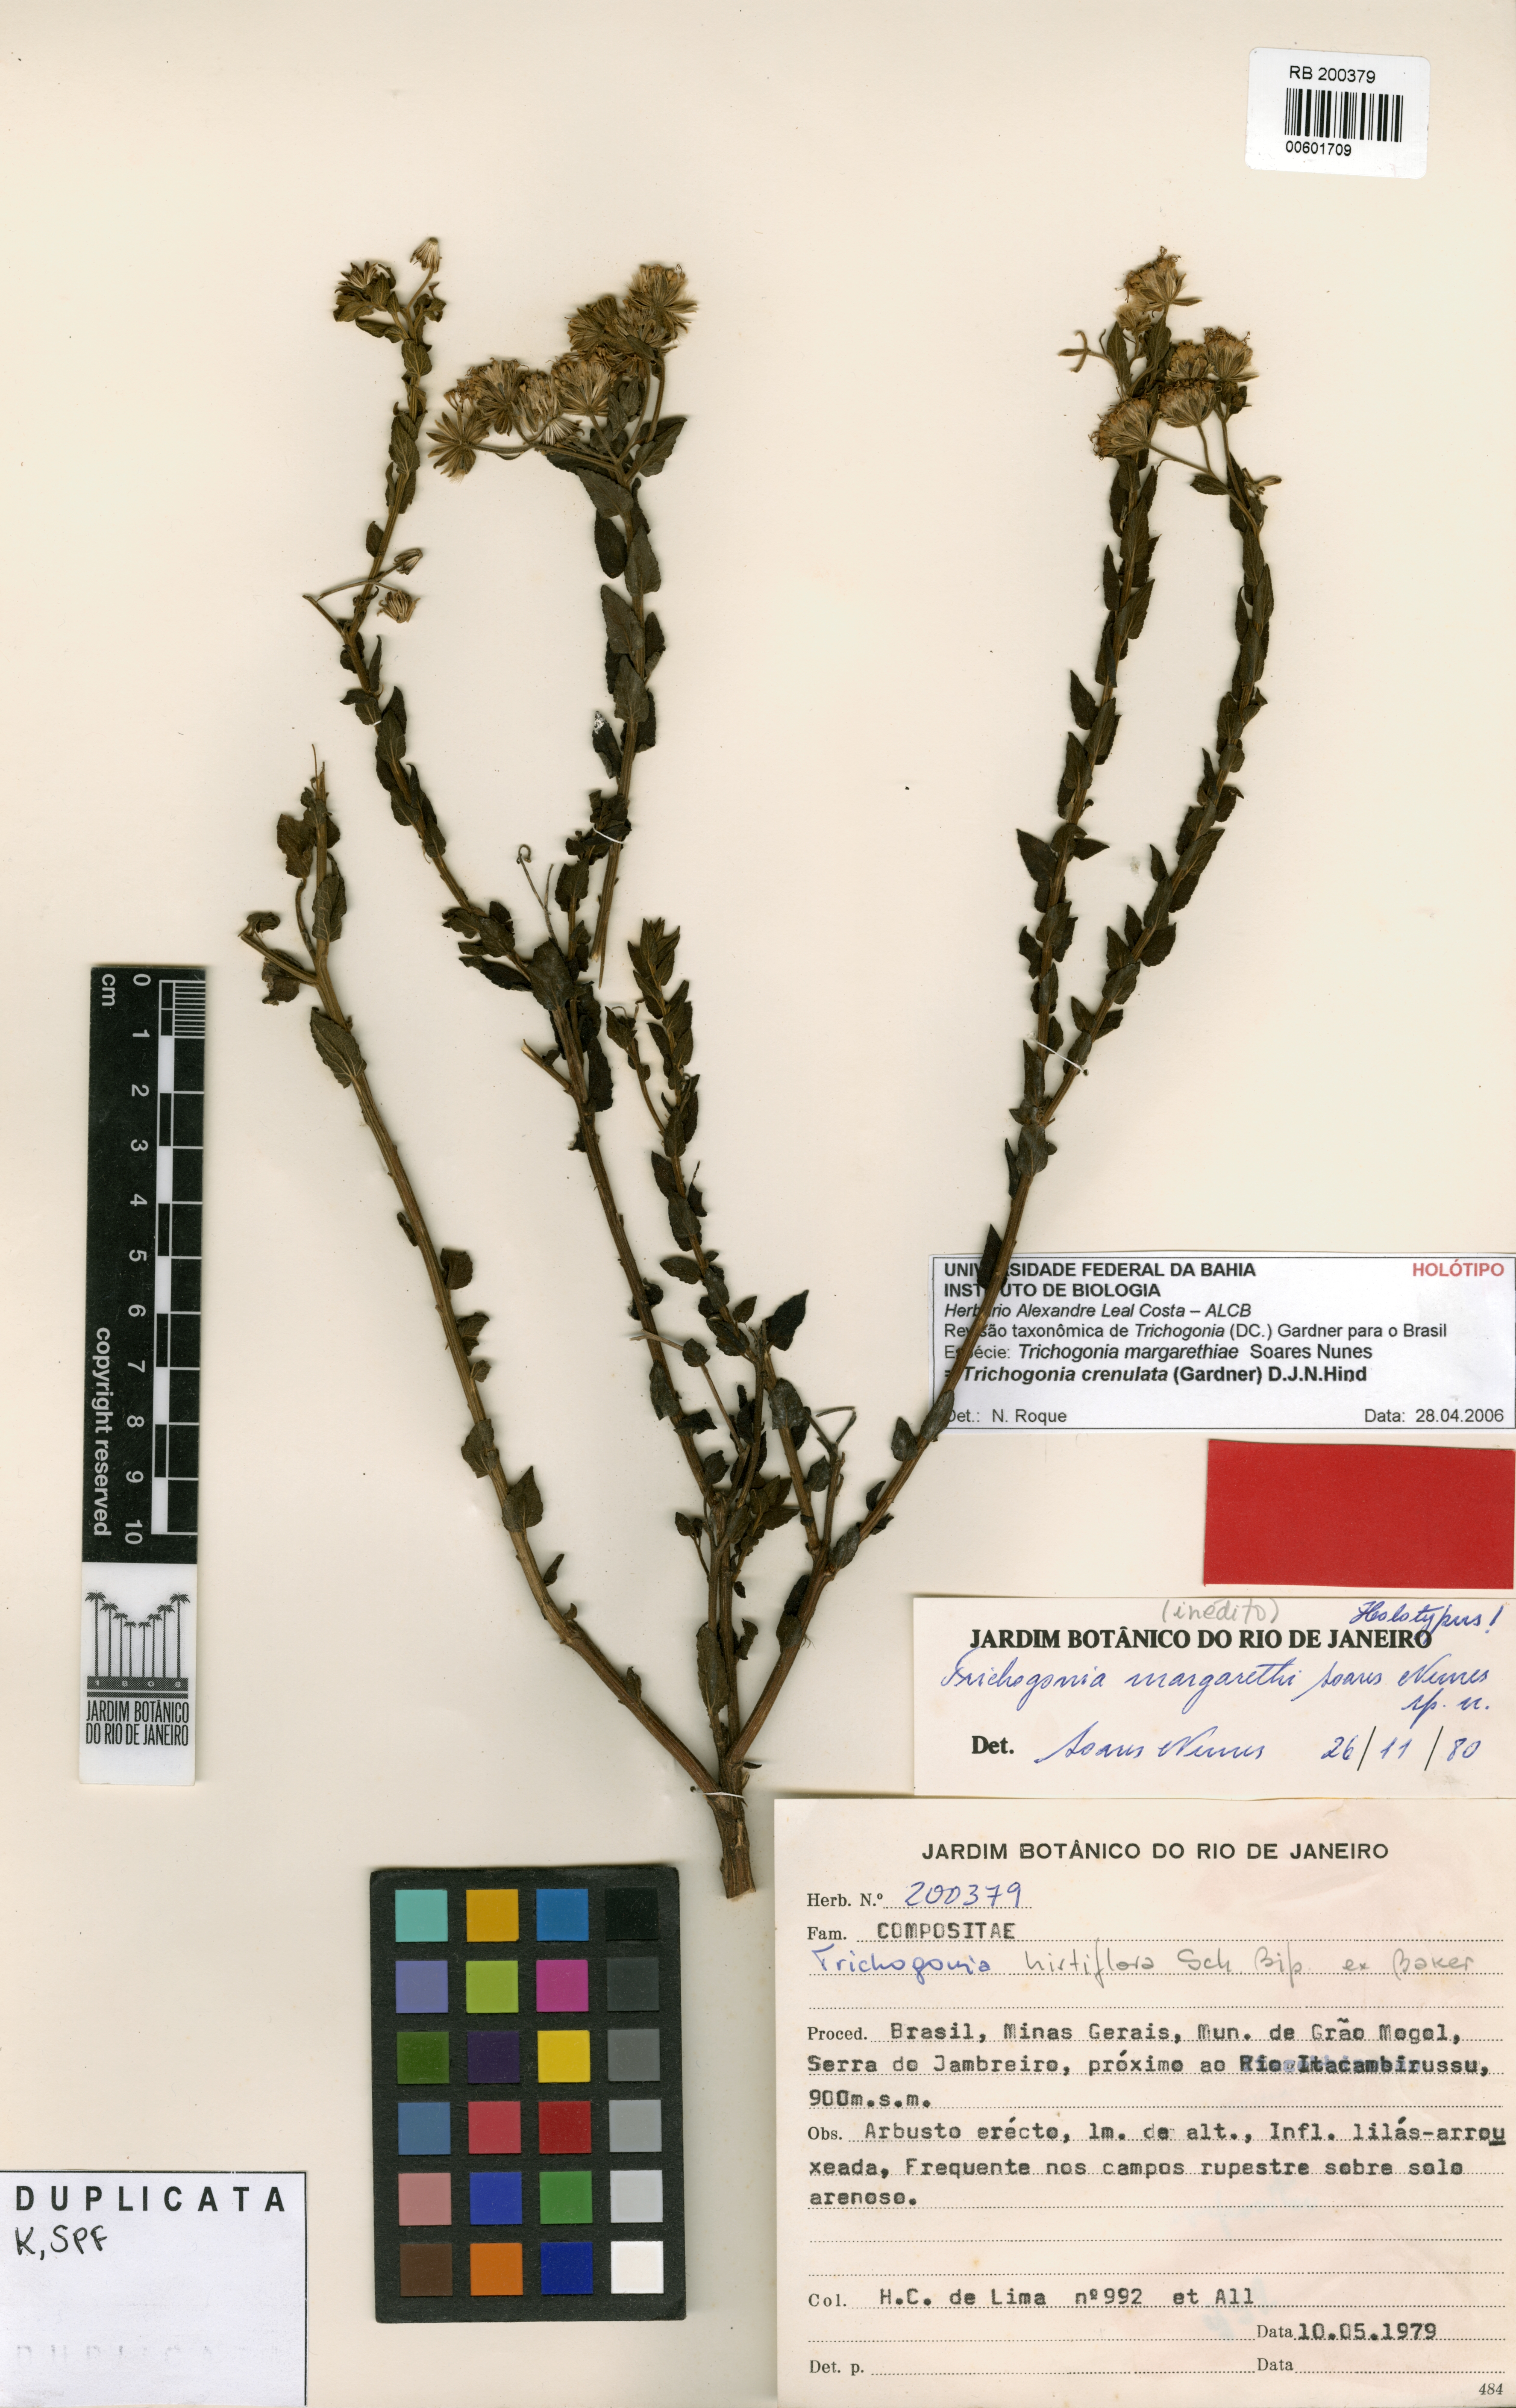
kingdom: Plantae
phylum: Tracheophyta
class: Magnoliopsida
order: Asterales
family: Asteraceae
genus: Trichogonia
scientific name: Trichogonia hirtiflora
